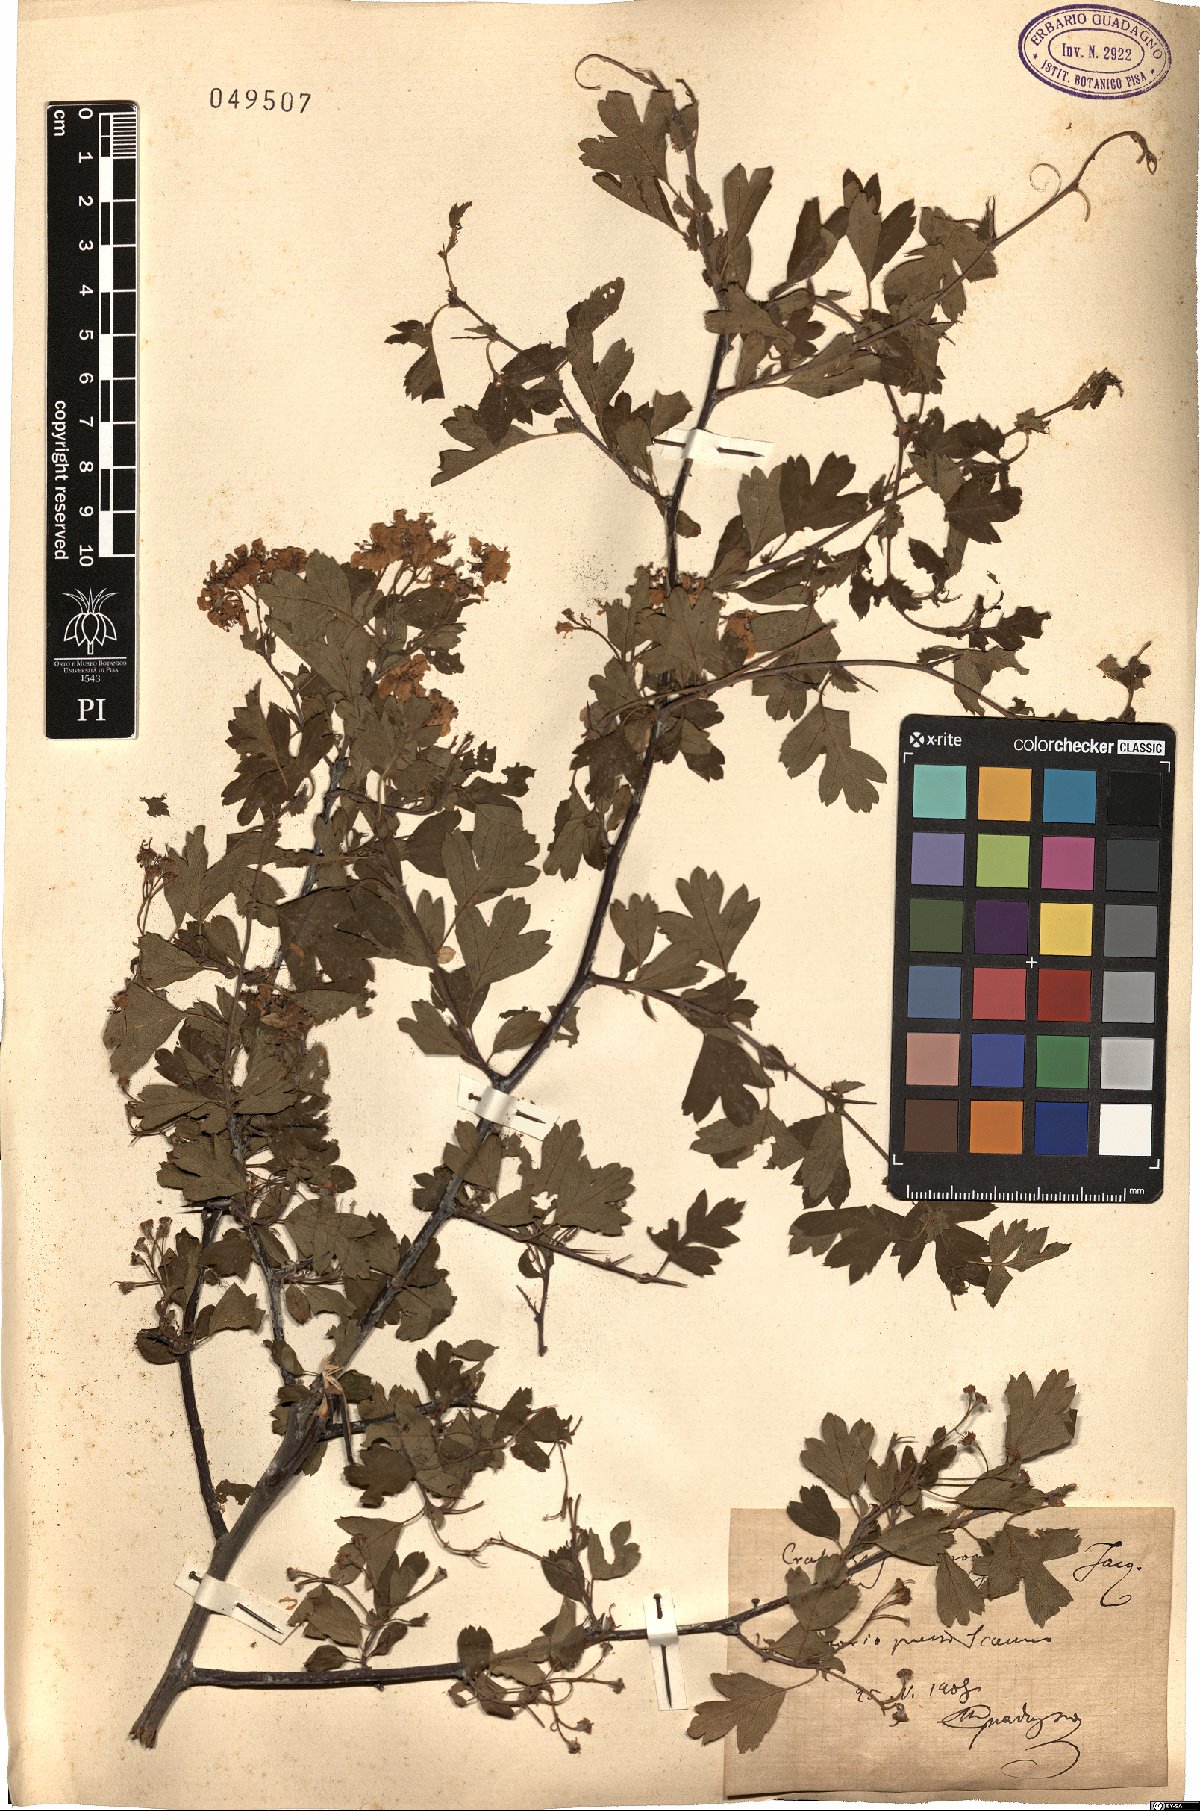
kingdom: Plantae
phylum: Tracheophyta
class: Magnoliopsida
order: Rosales
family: Rosaceae
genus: Crataegus
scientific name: Crataegus monogyna
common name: Hawthorn
